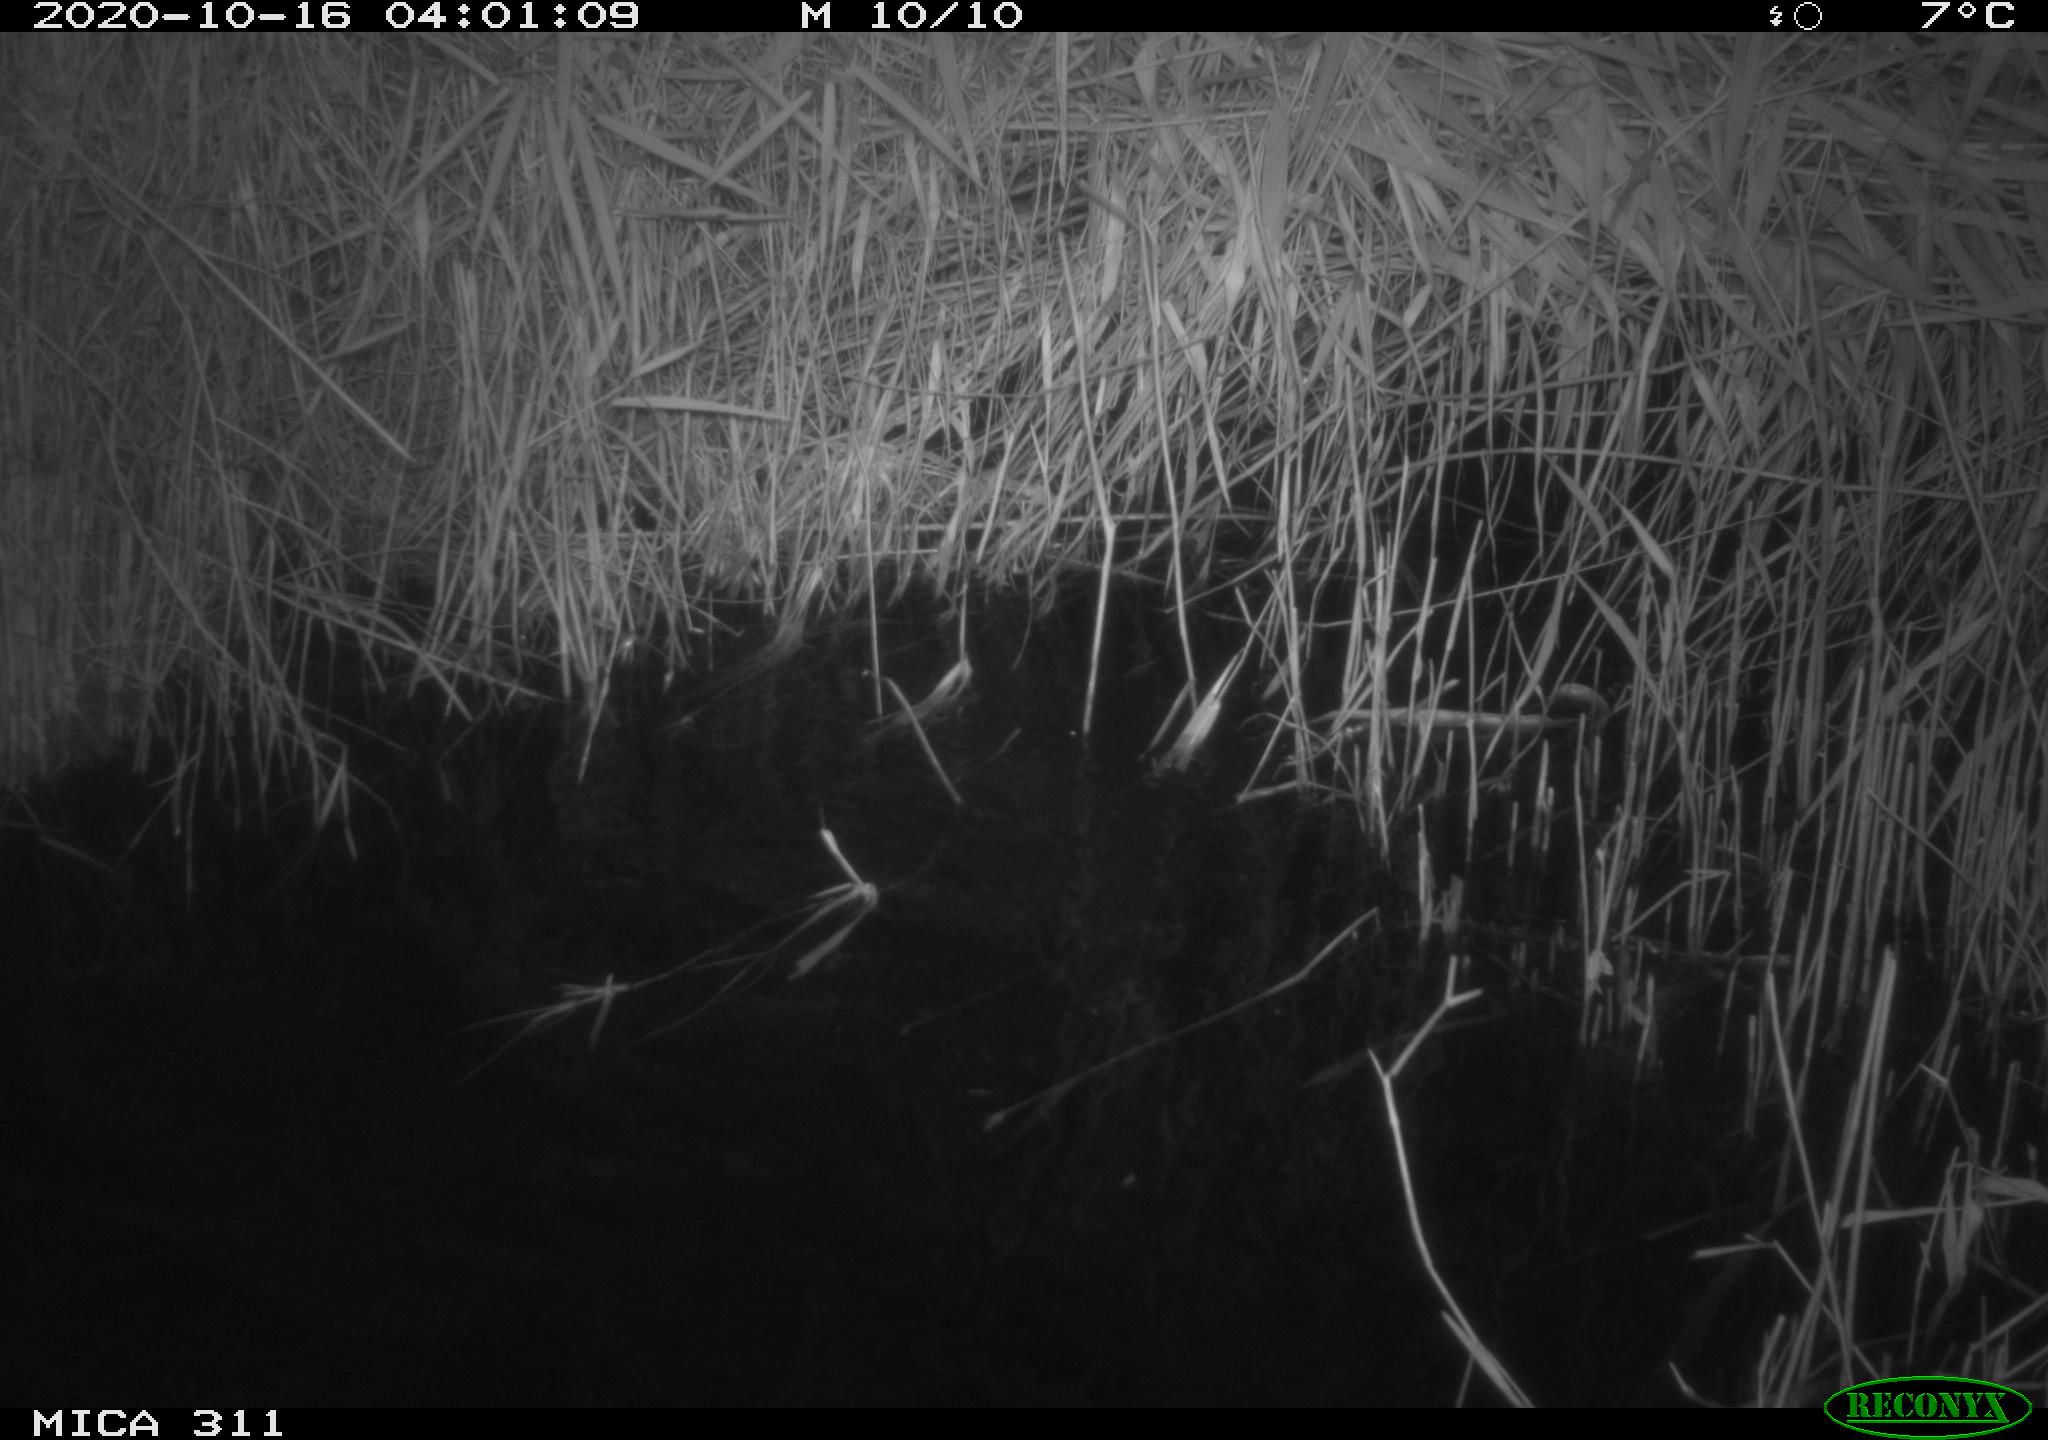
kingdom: Animalia
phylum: Chordata
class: Mammalia
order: Rodentia
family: Muridae
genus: Rattus
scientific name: Rattus norvegicus
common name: Brown rat
